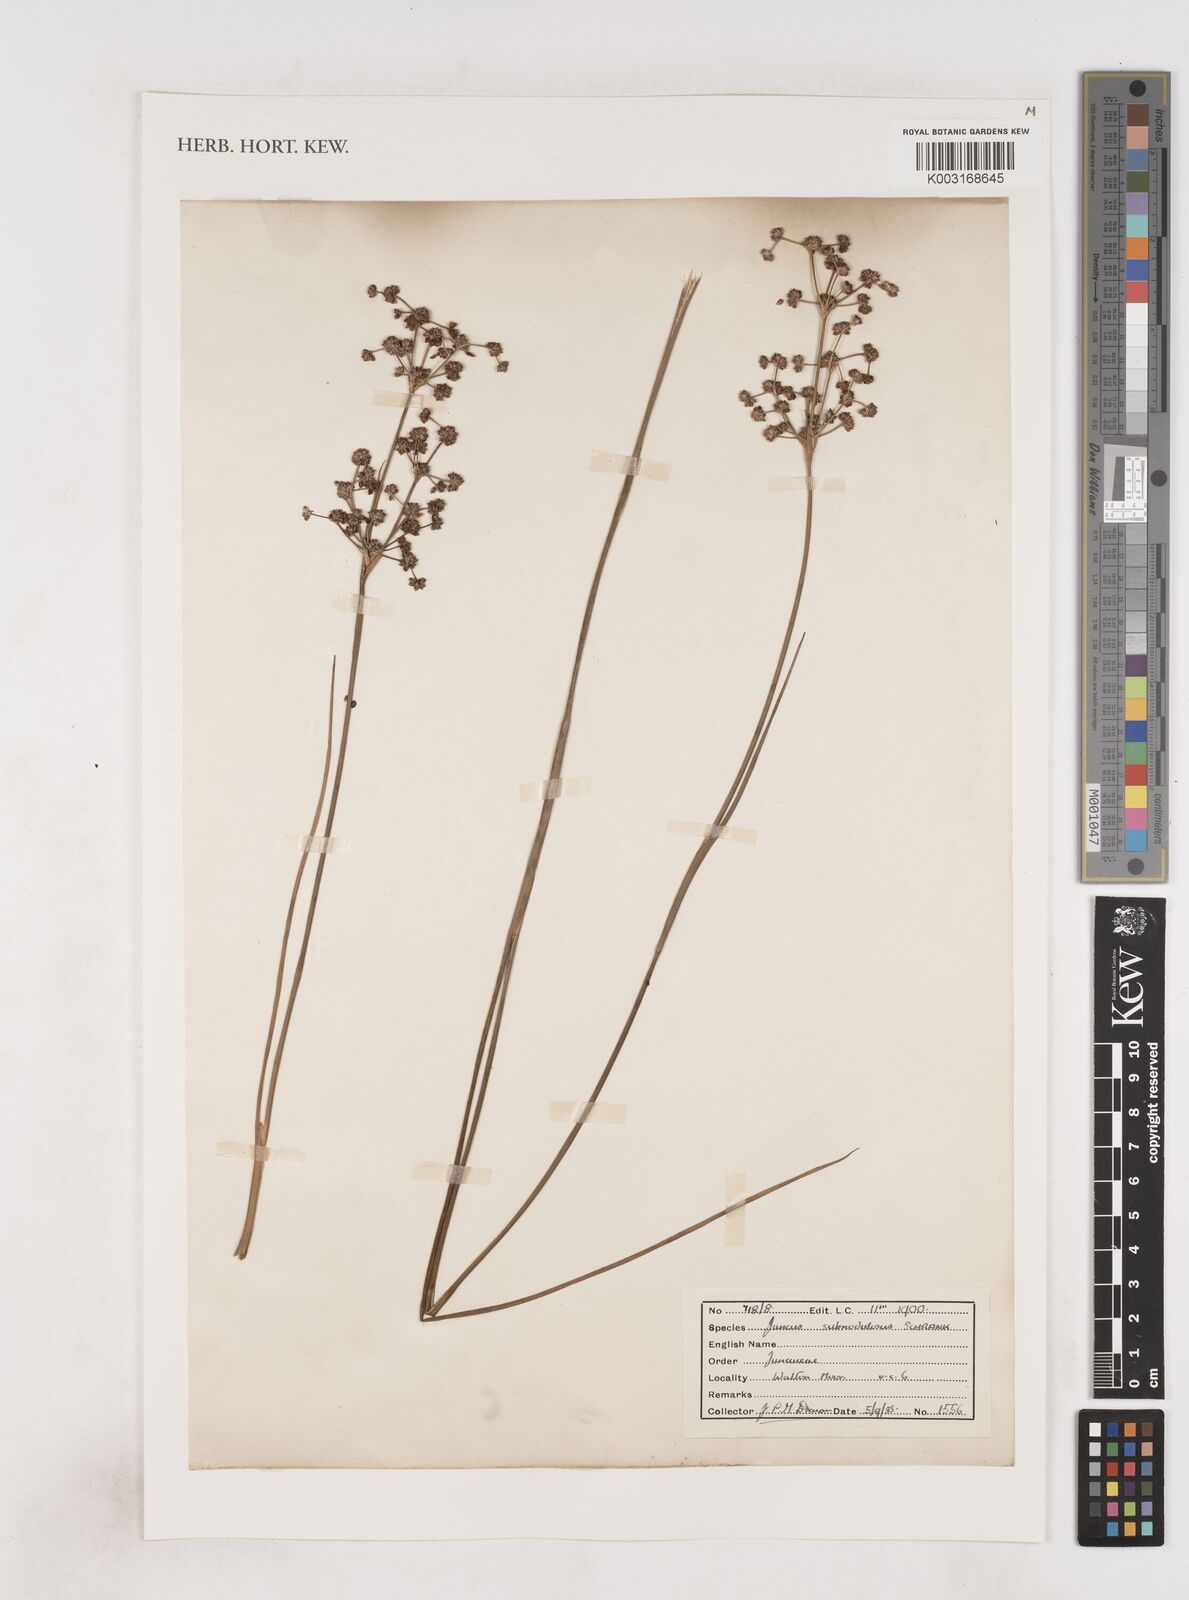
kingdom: Plantae
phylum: Tracheophyta
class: Liliopsida
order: Poales
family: Juncaceae
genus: Juncus
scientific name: Juncus subnodulosus
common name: Blunt-flowered rush
